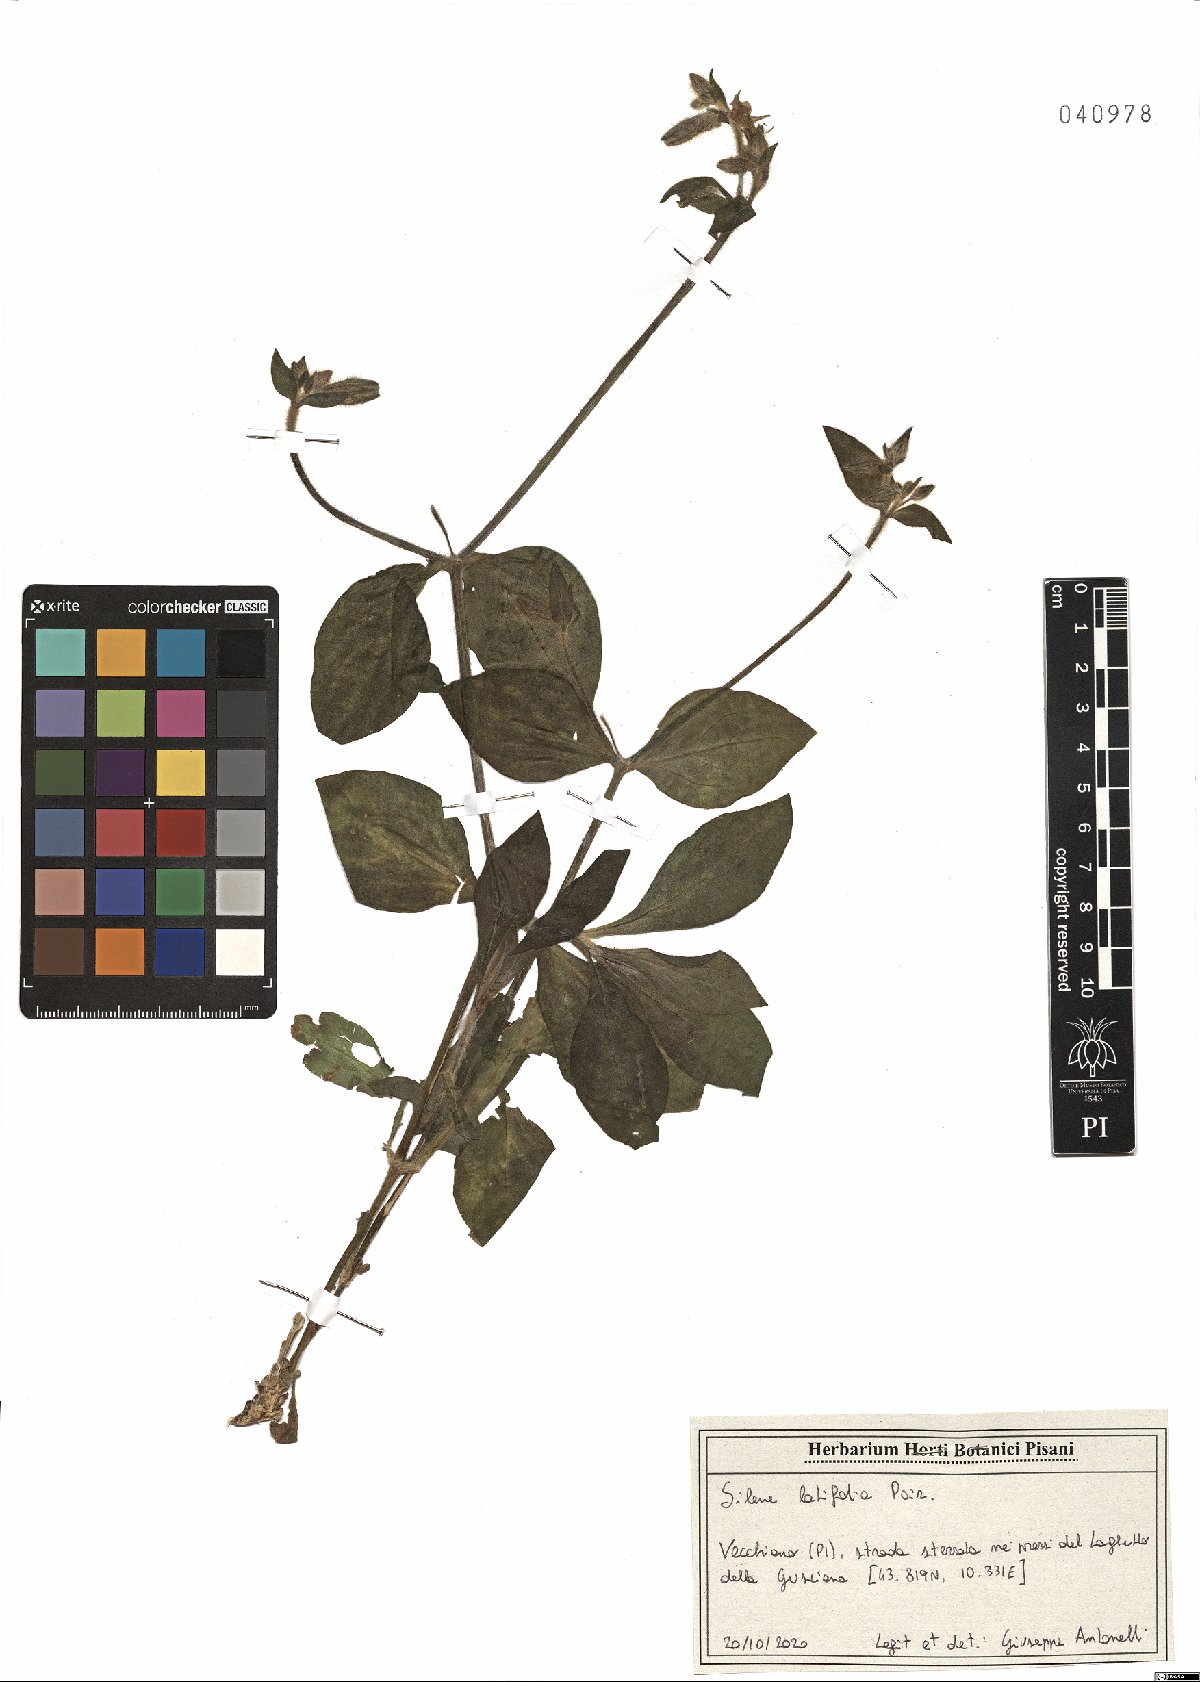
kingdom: Plantae
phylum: Tracheophyta
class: Magnoliopsida
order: Caryophyllales
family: Caryophyllaceae
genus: Silene
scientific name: Silene latifolia
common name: White campion
